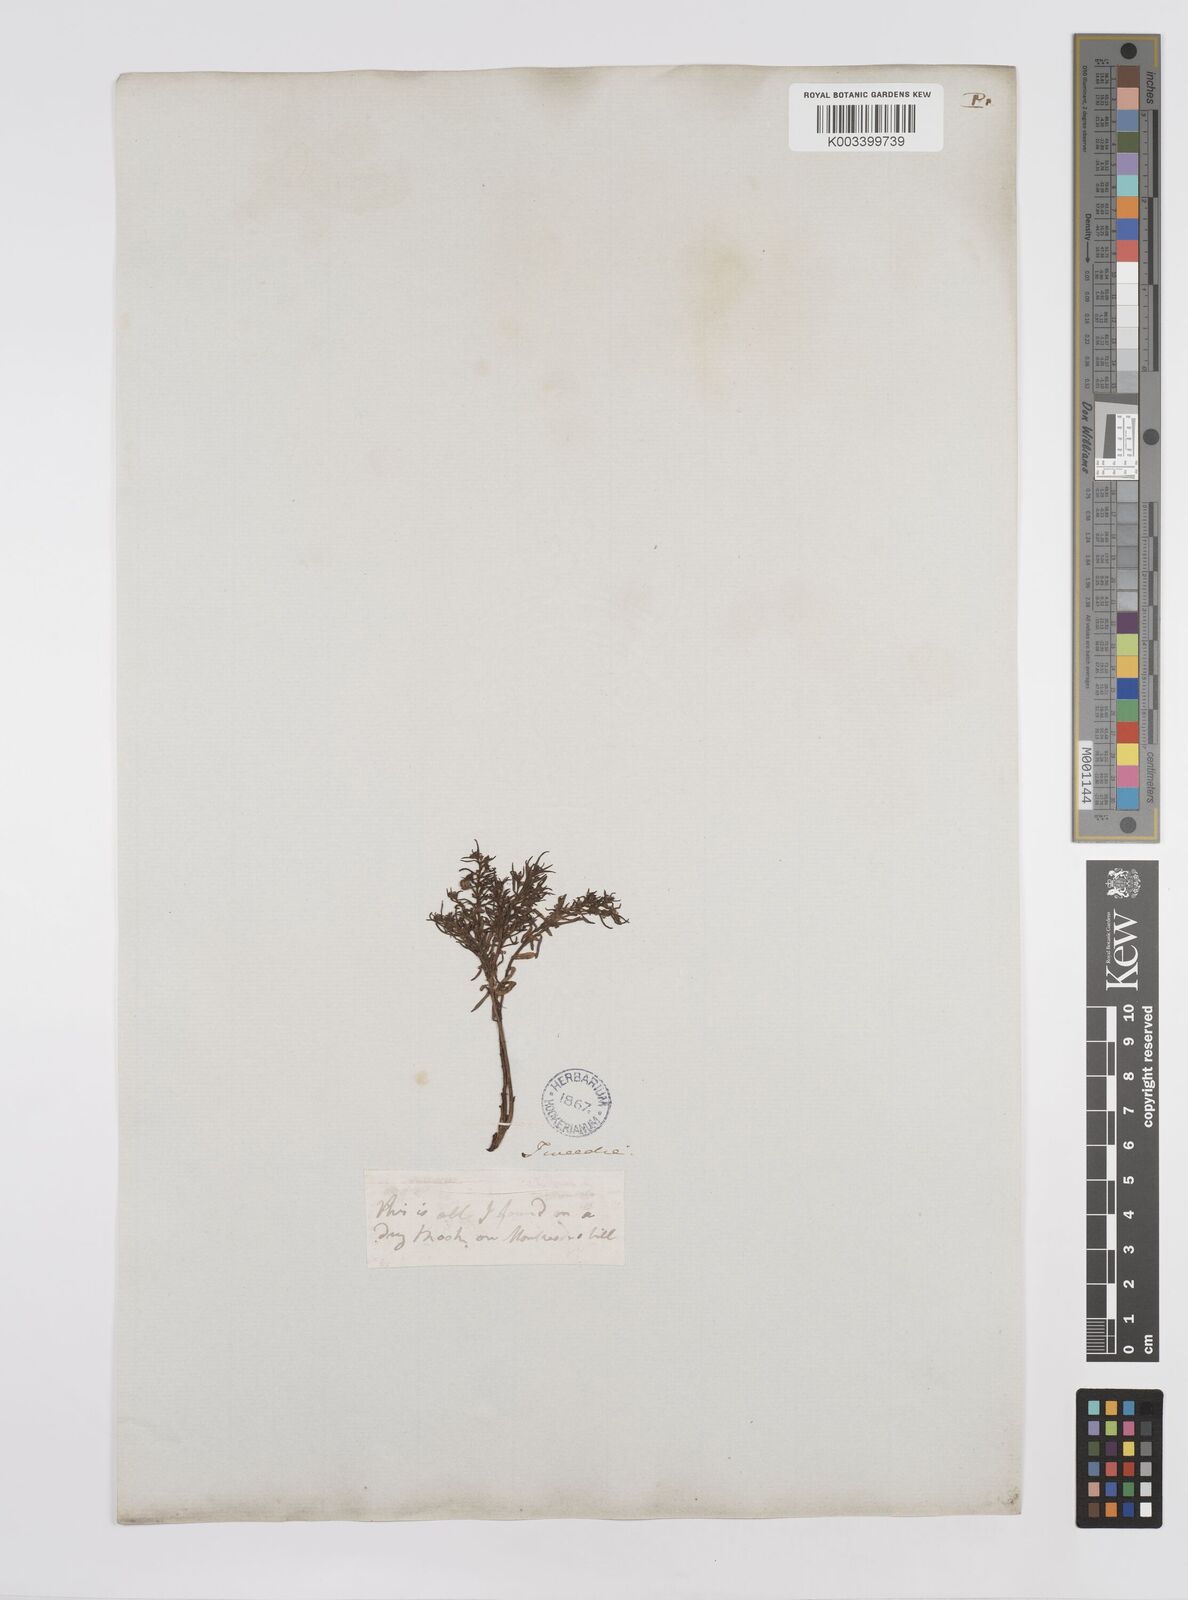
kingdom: Plantae
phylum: Tracheophyta
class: Magnoliopsida
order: Malpighiales
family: Euphorbiaceae
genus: Euphorbia
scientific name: Euphorbia
